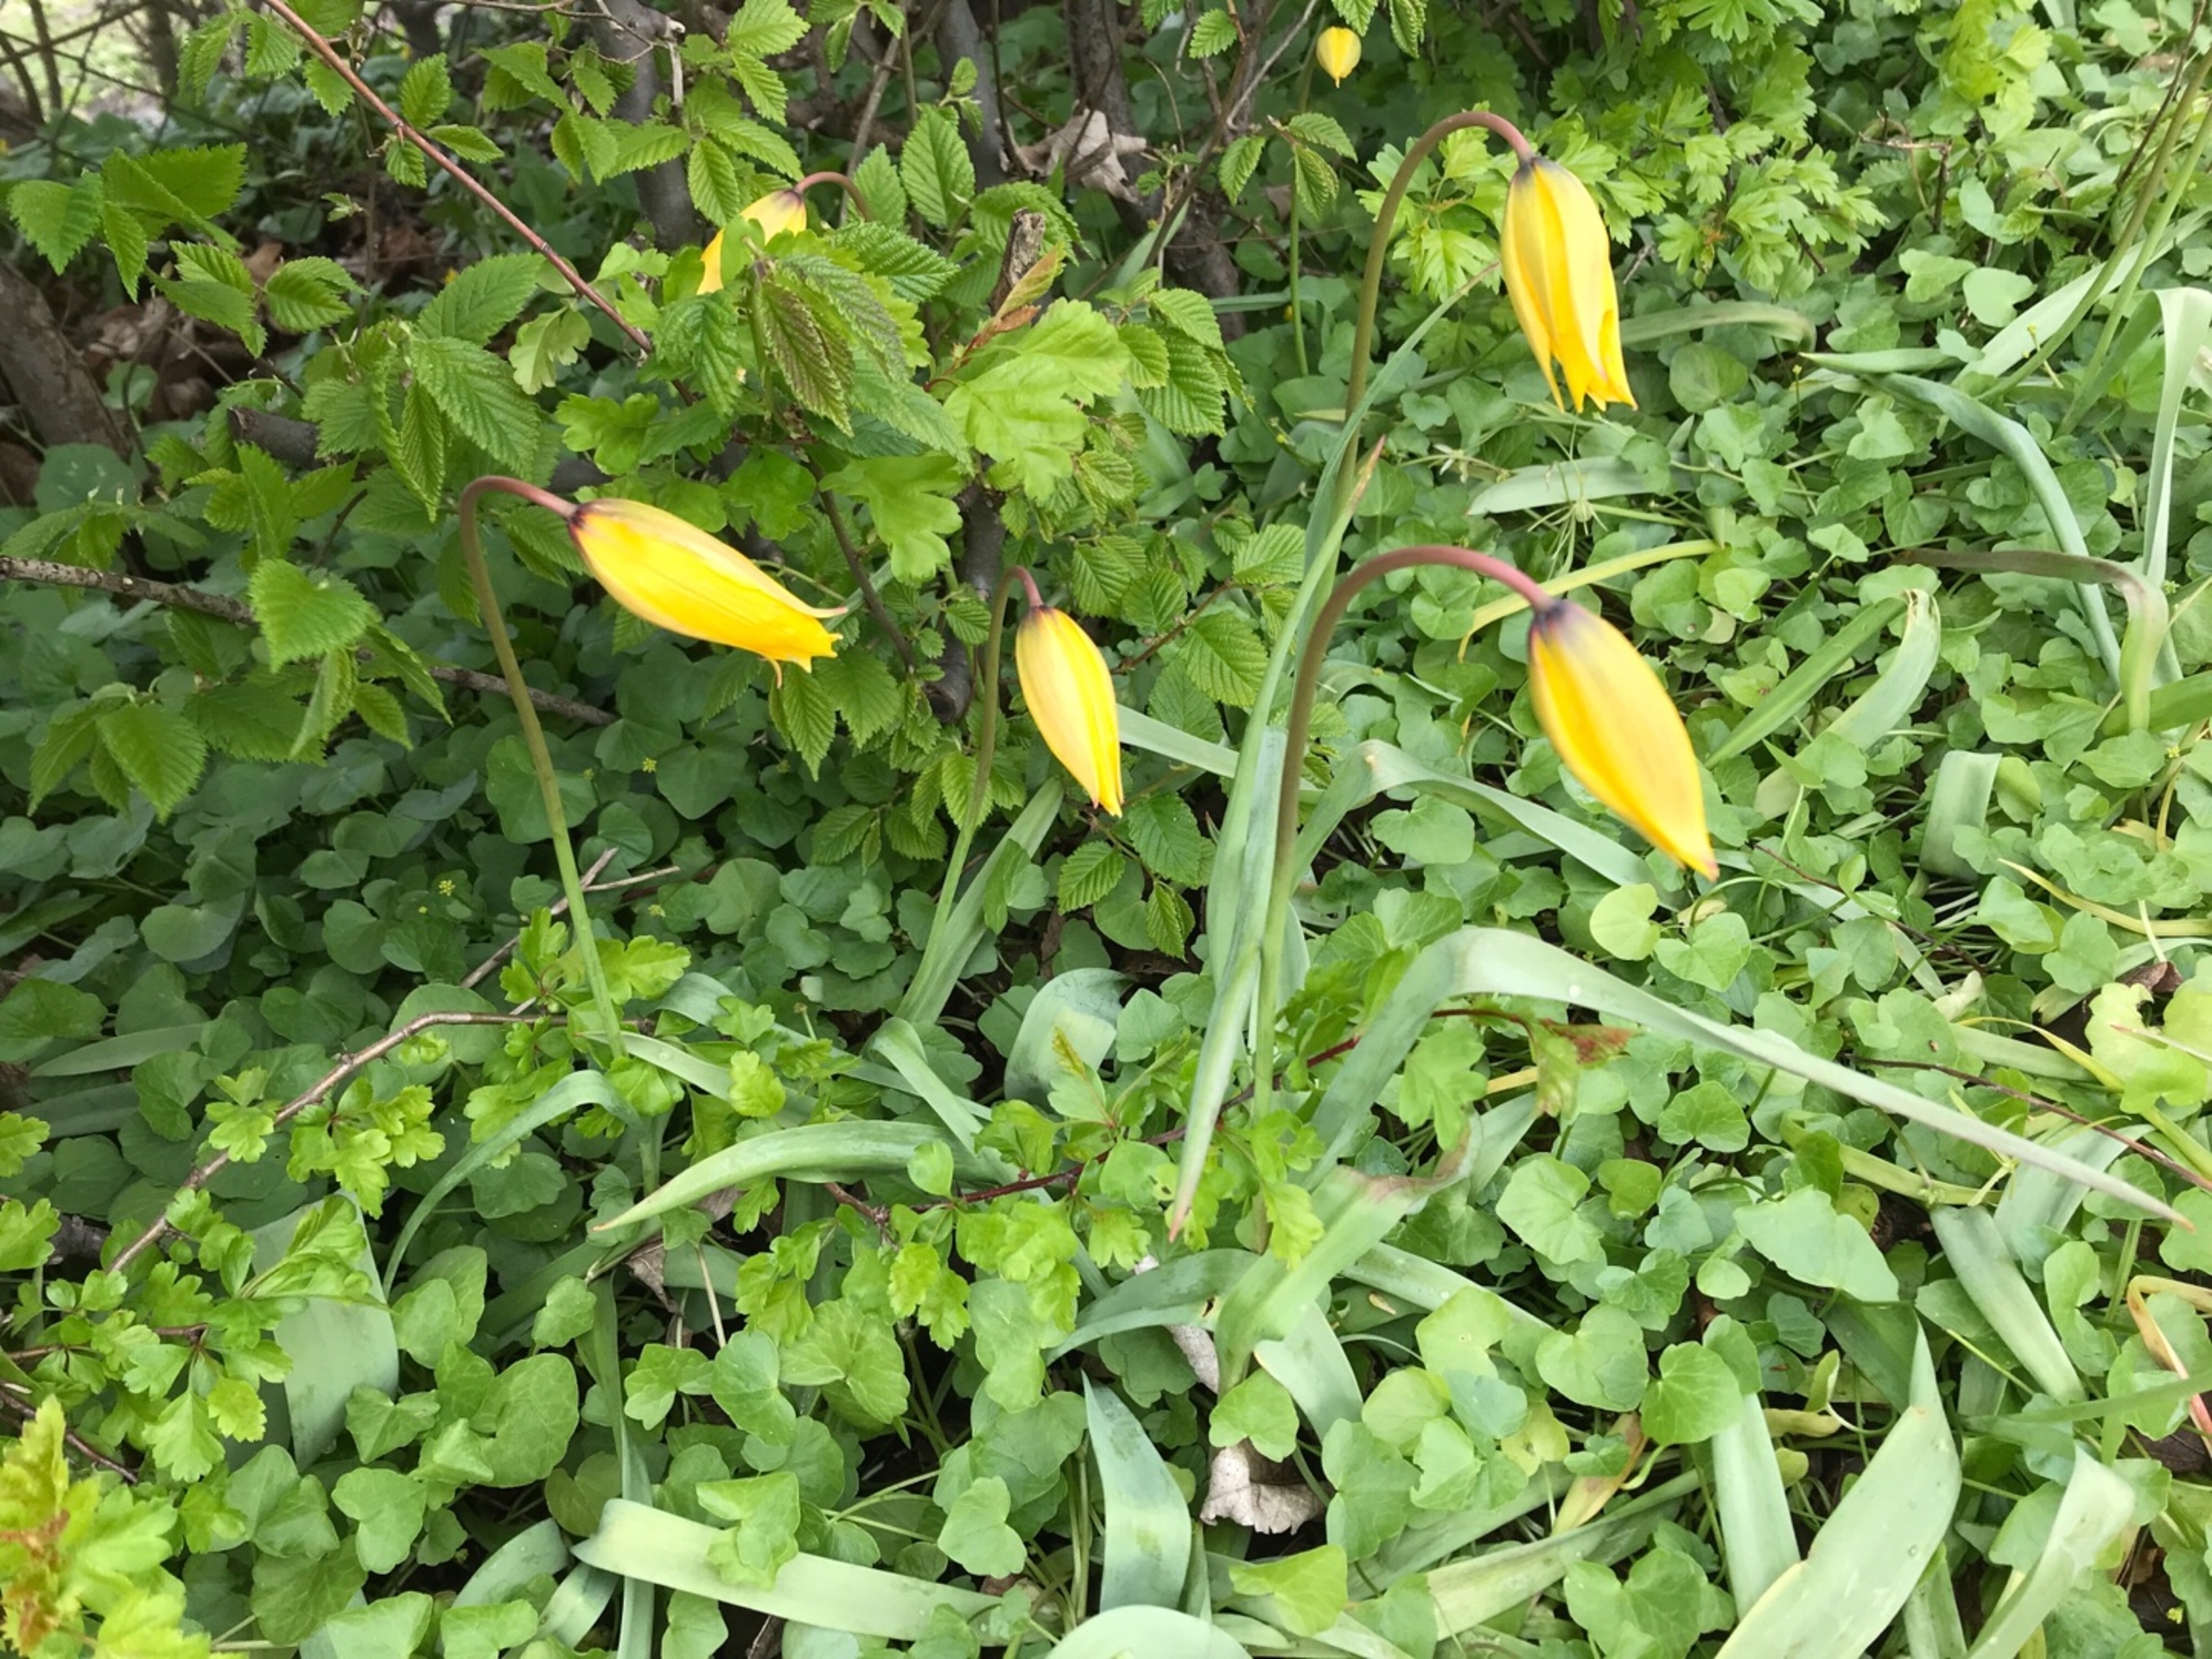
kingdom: Plantae
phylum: Tracheophyta
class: Liliopsida
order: Liliales
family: Liliaceae
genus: Tulipa
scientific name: Tulipa sylvestris
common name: Vild tulipan
